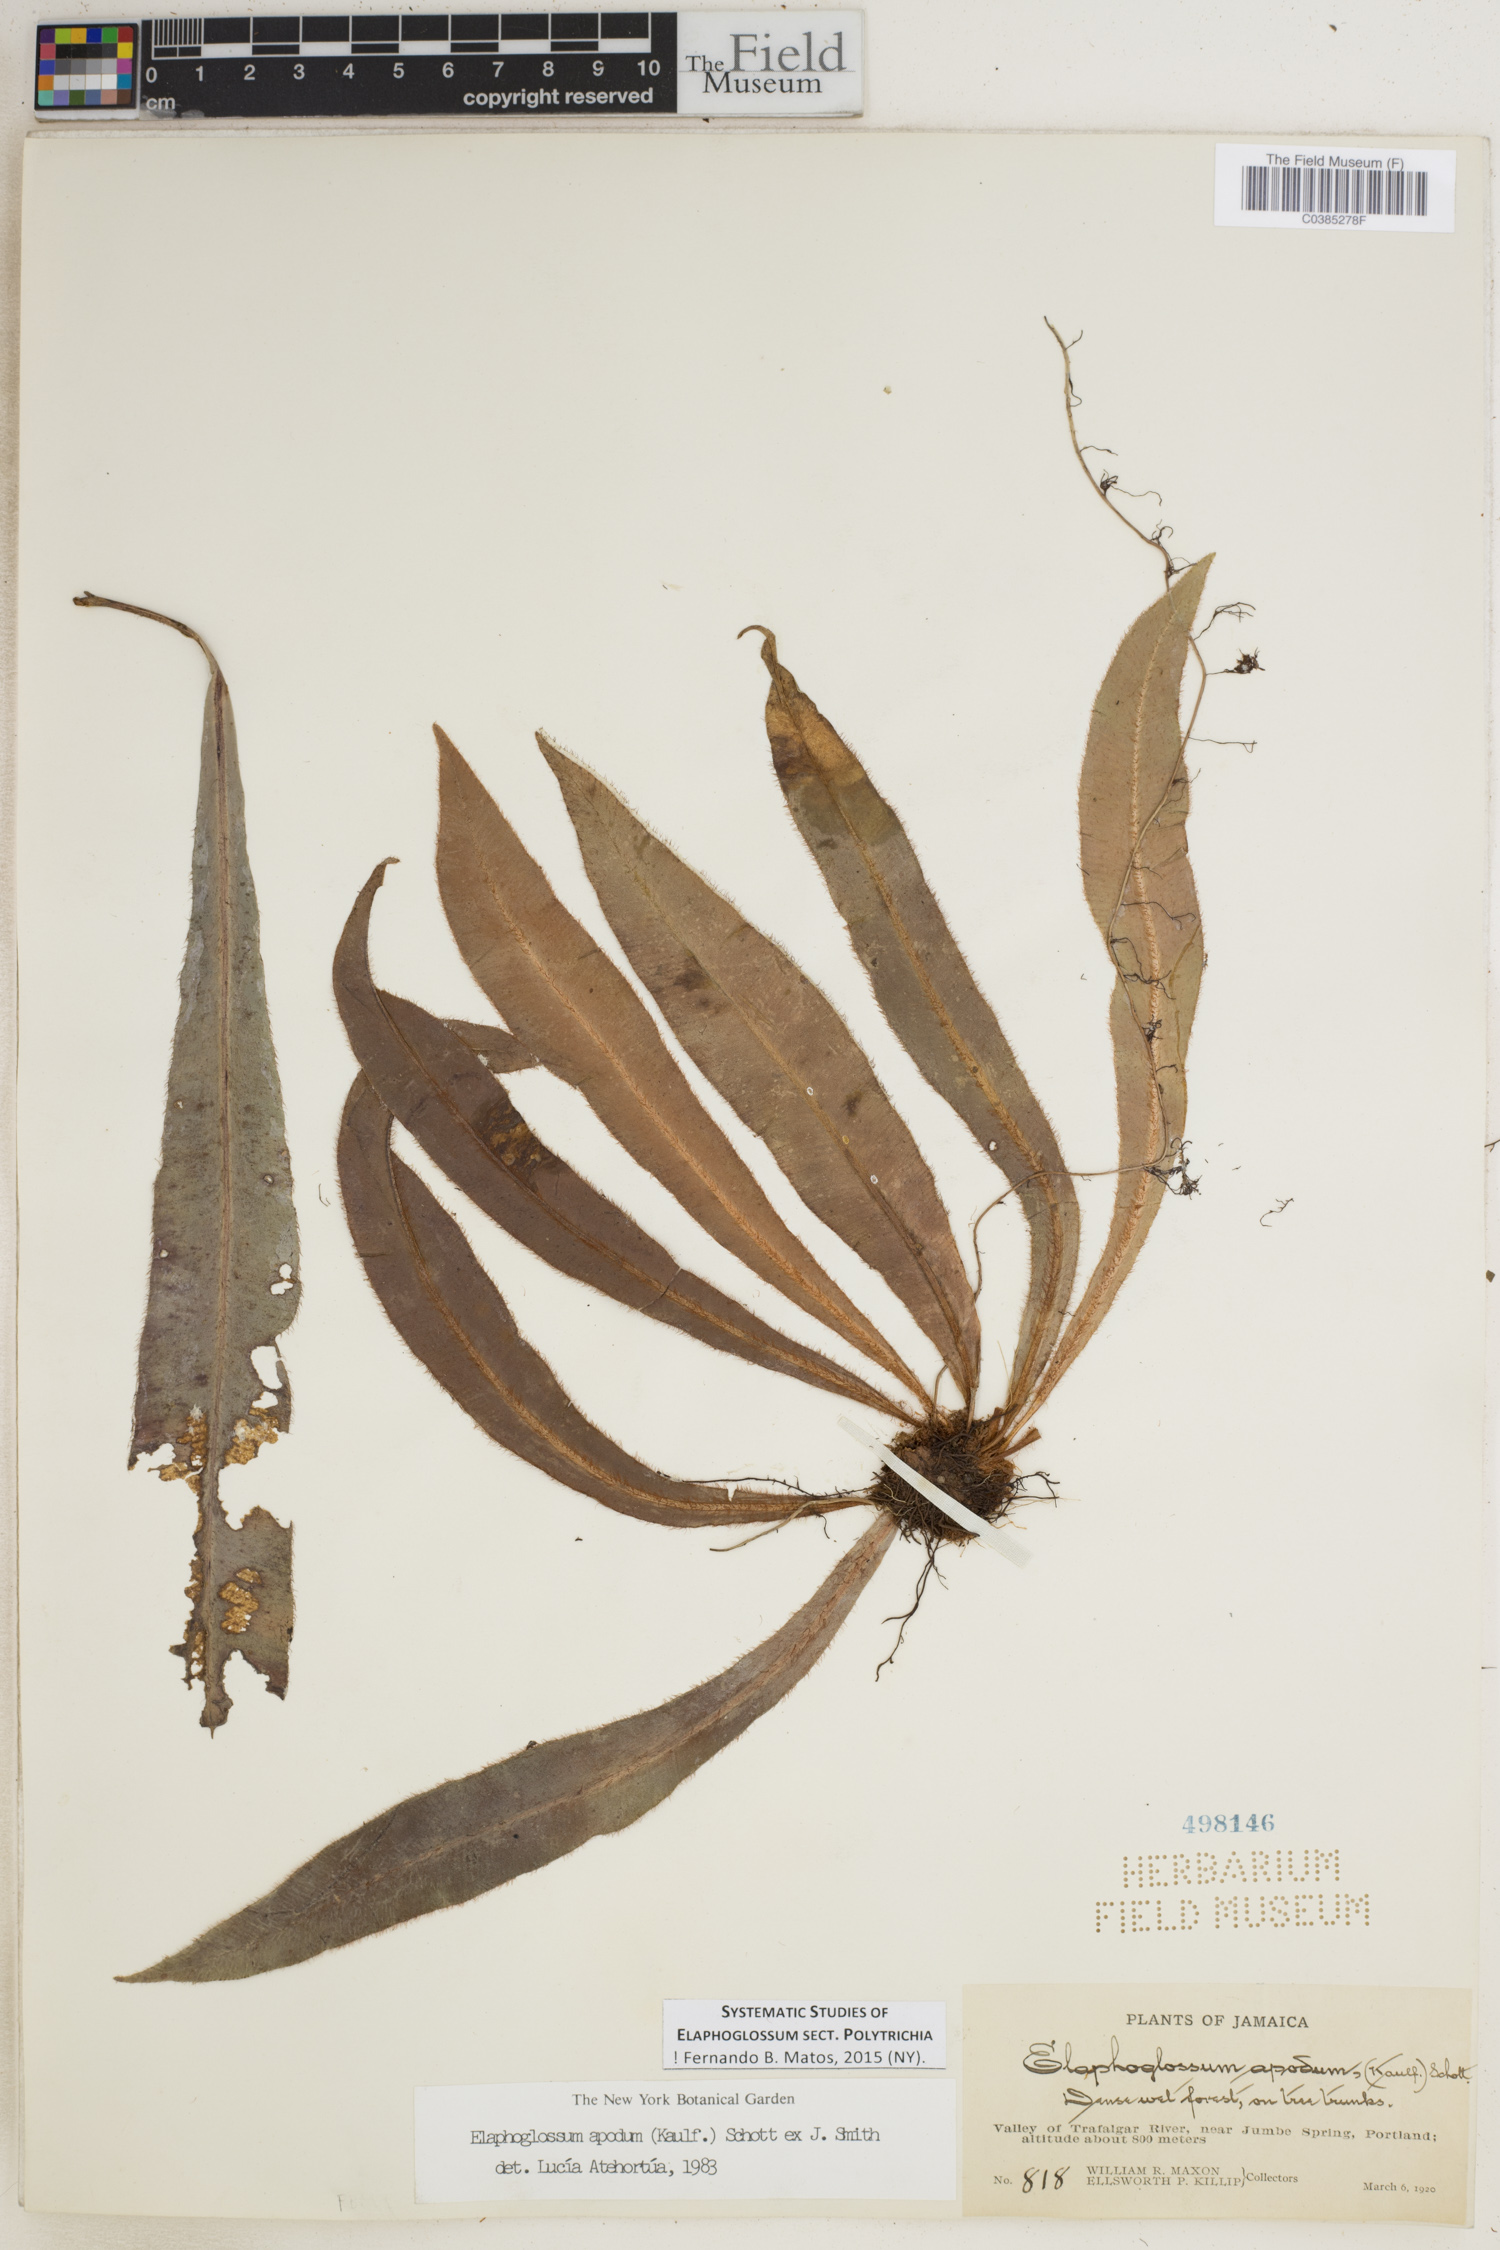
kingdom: Plantae
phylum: Tracheophyta
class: Polypodiopsida
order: Polypodiales
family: Dryopteridaceae
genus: Elaphoglossum
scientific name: Elaphoglossum polytrichum
